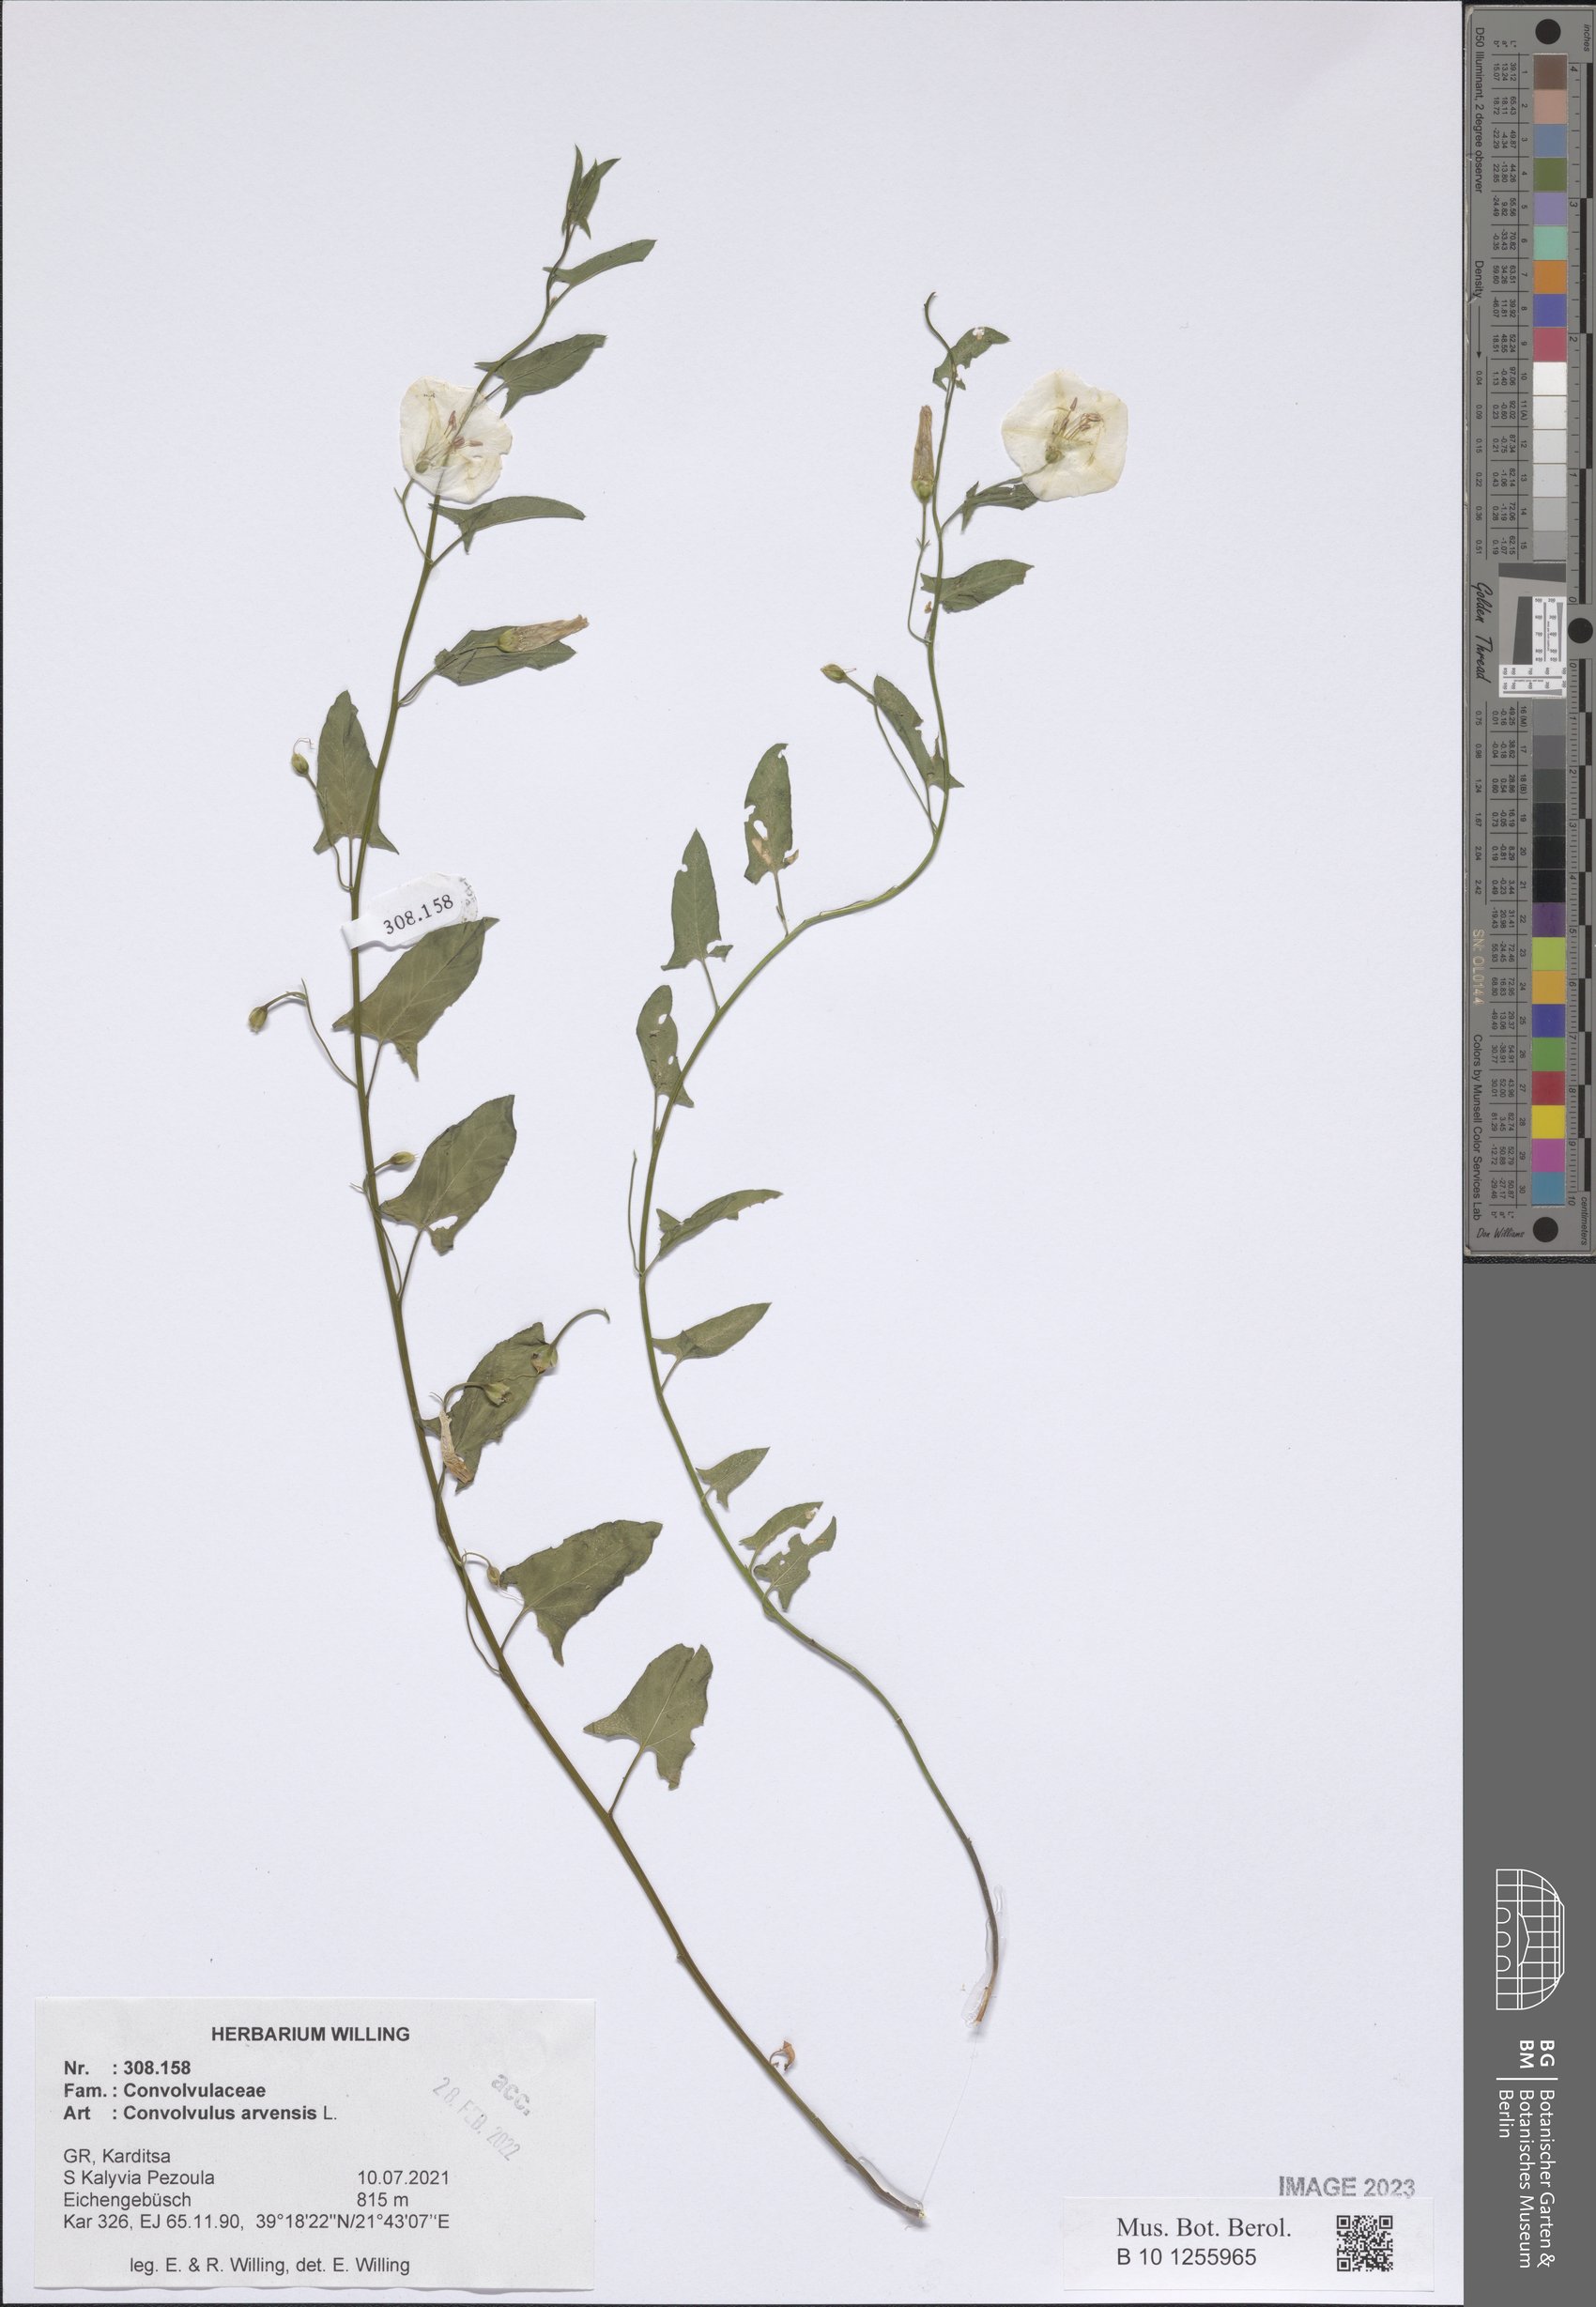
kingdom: Plantae
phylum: Tracheophyta
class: Magnoliopsida
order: Solanales
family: Convolvulaceae
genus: Convolvulus
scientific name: Convolvulus arvensis
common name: Field bindweed
